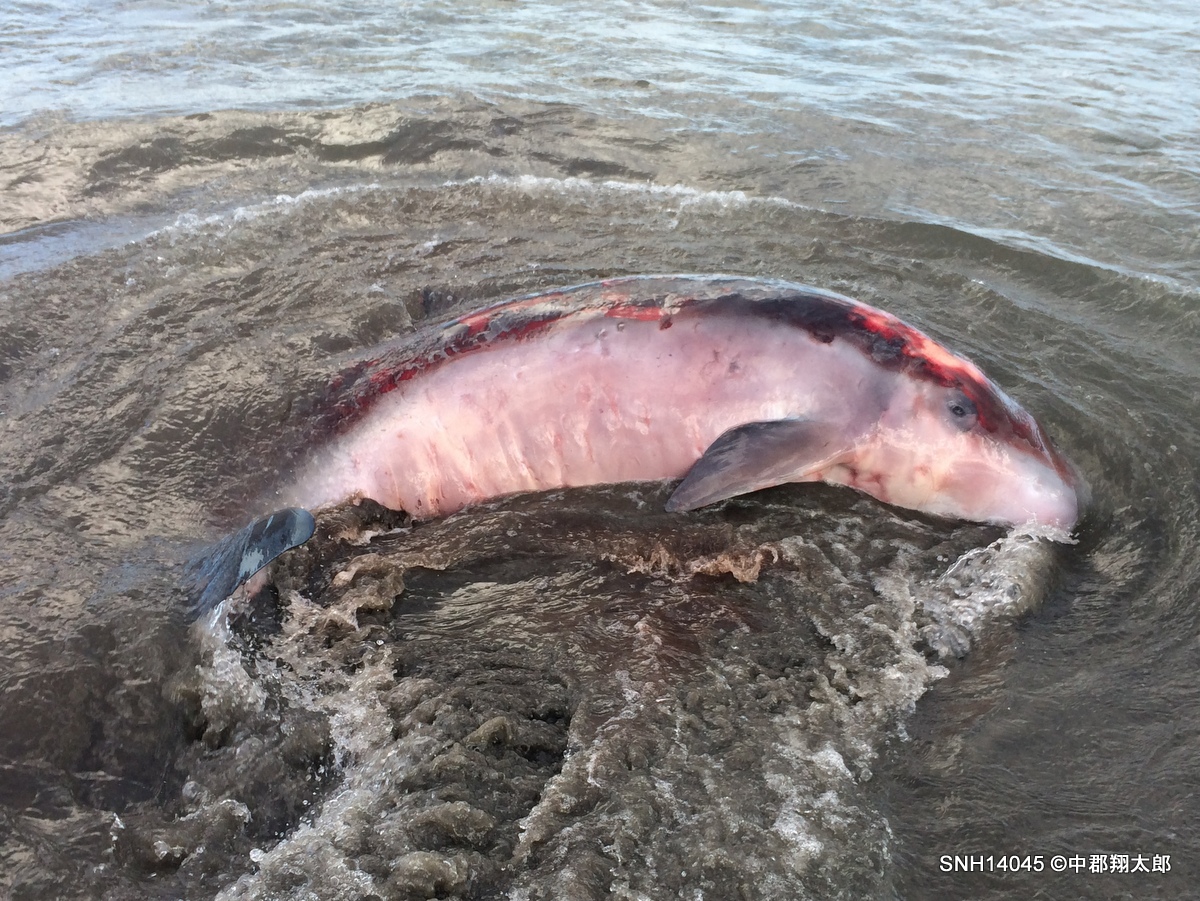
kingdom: Animalia
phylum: Chordata
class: Mammalia
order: Cetacea
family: Kogiidae
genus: Kogia
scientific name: Kogia breviceps
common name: Pygmy sperm whale
